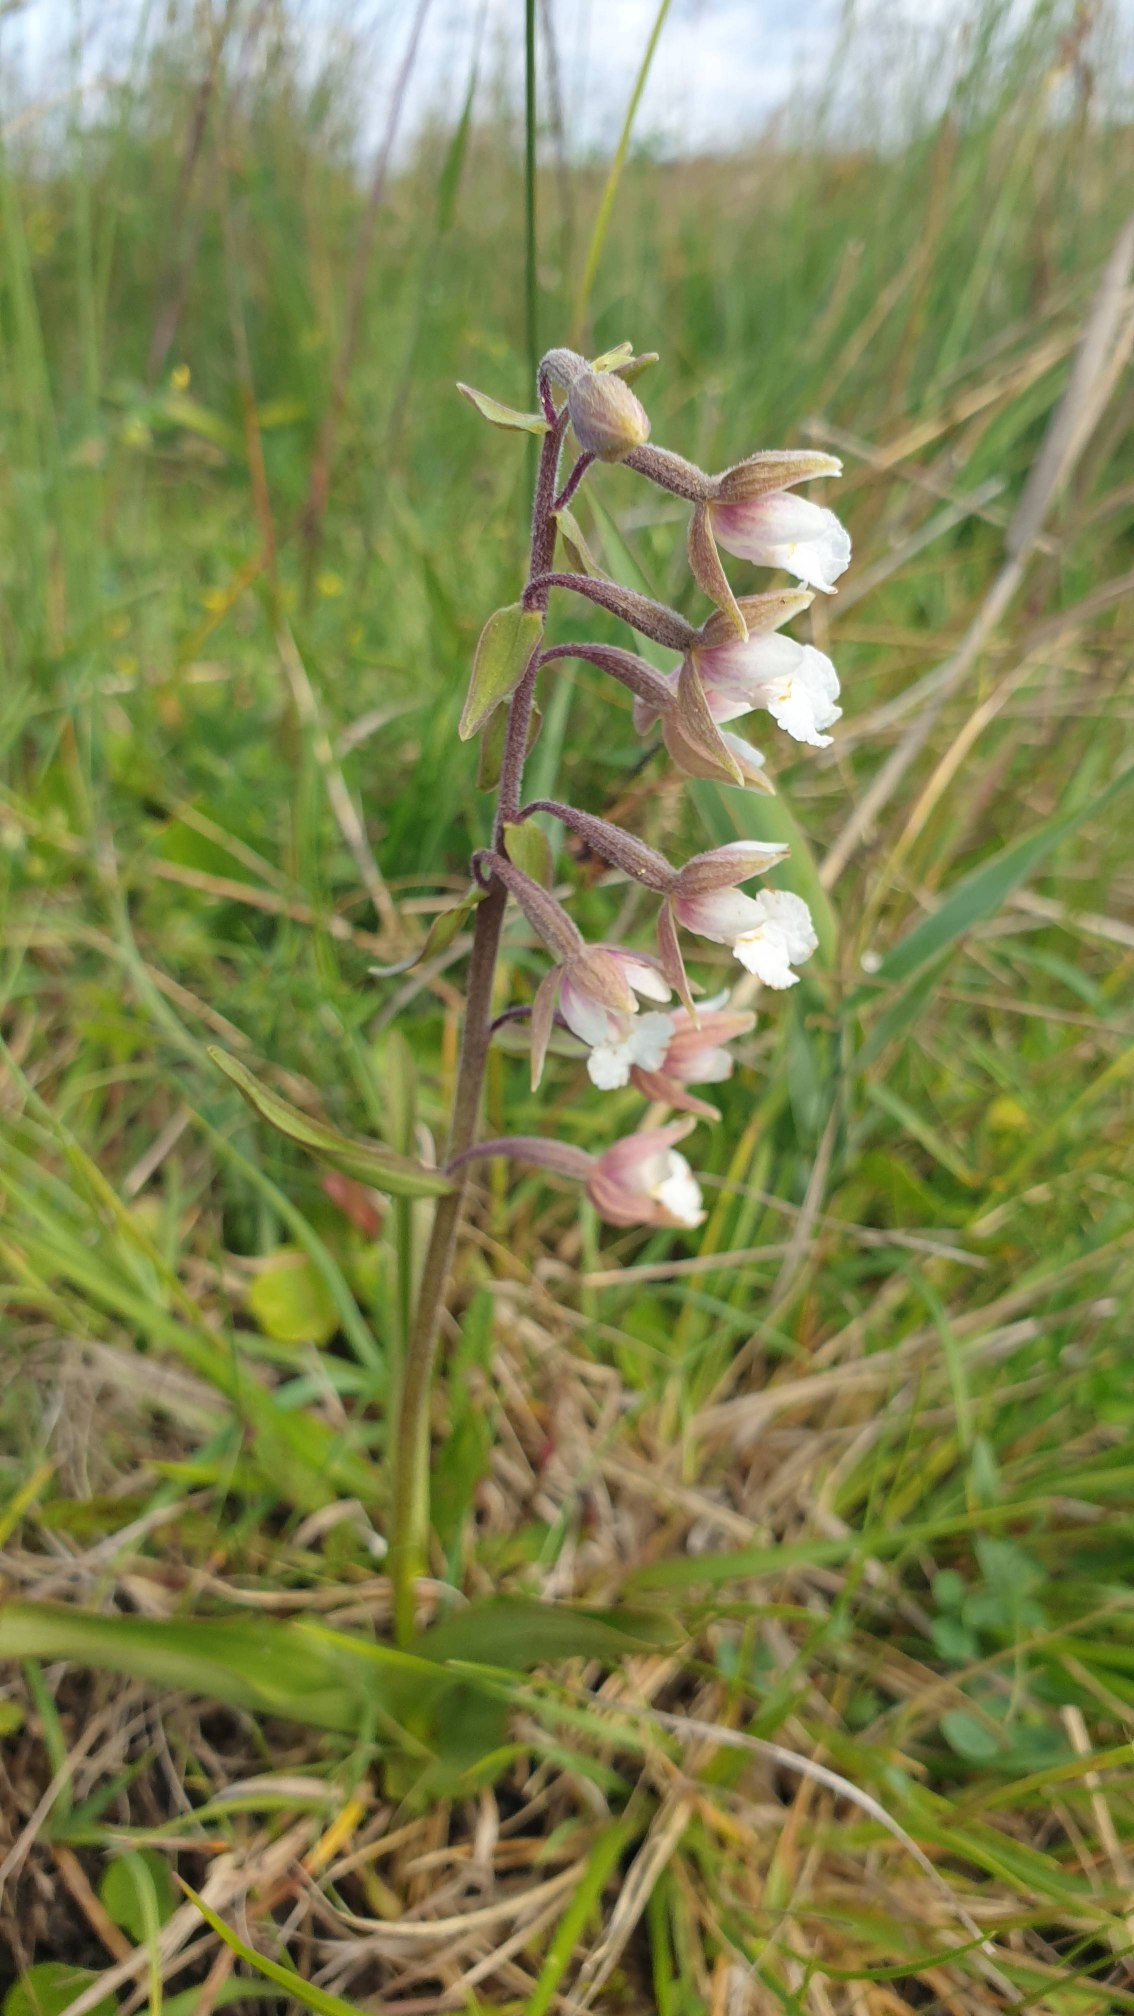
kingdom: Plantae
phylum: Tracheophyta
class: Liliopsida
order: Asparagales
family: Orchidaceae
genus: Epipactis
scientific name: Epipactis palustris
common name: Sump-hullæbe
